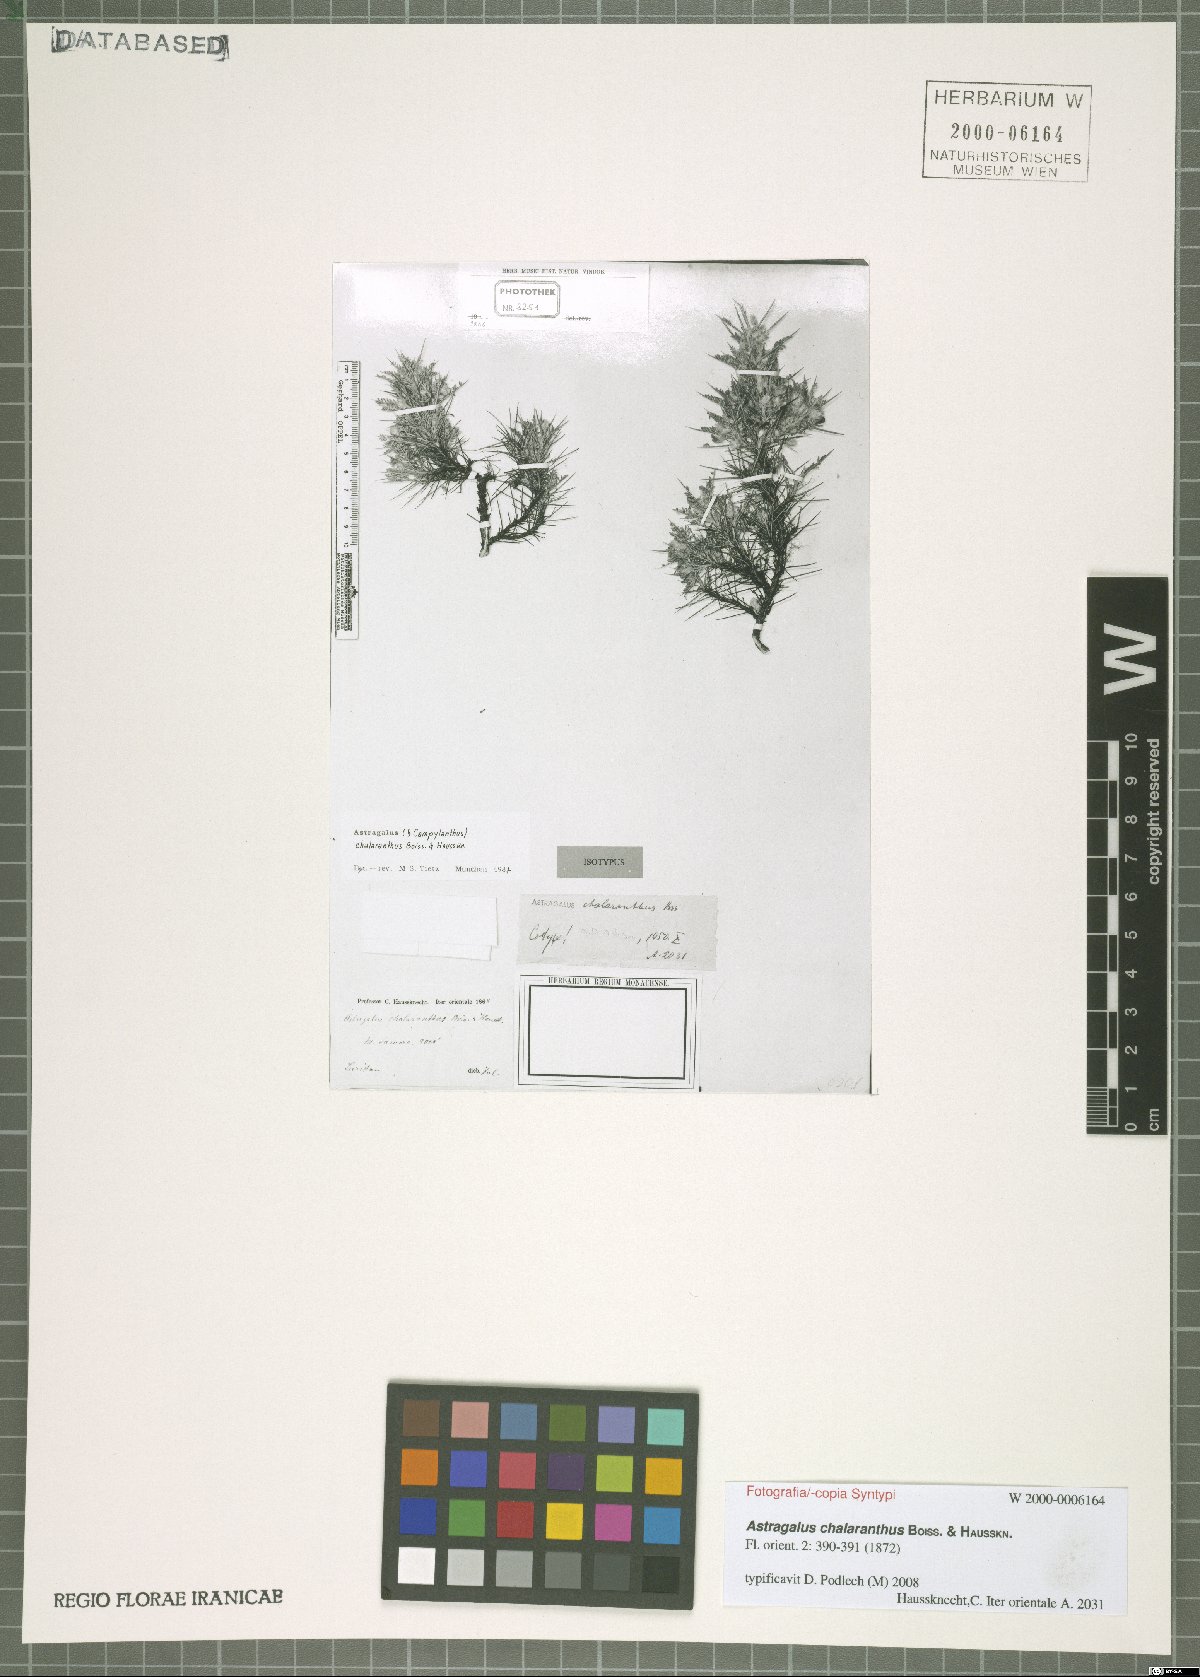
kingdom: Plantae
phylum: Tracheophyta
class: Magnoliopsida
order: Fabales
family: Fabaceae
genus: Astragalus
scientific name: Astragalus chalaranthus
